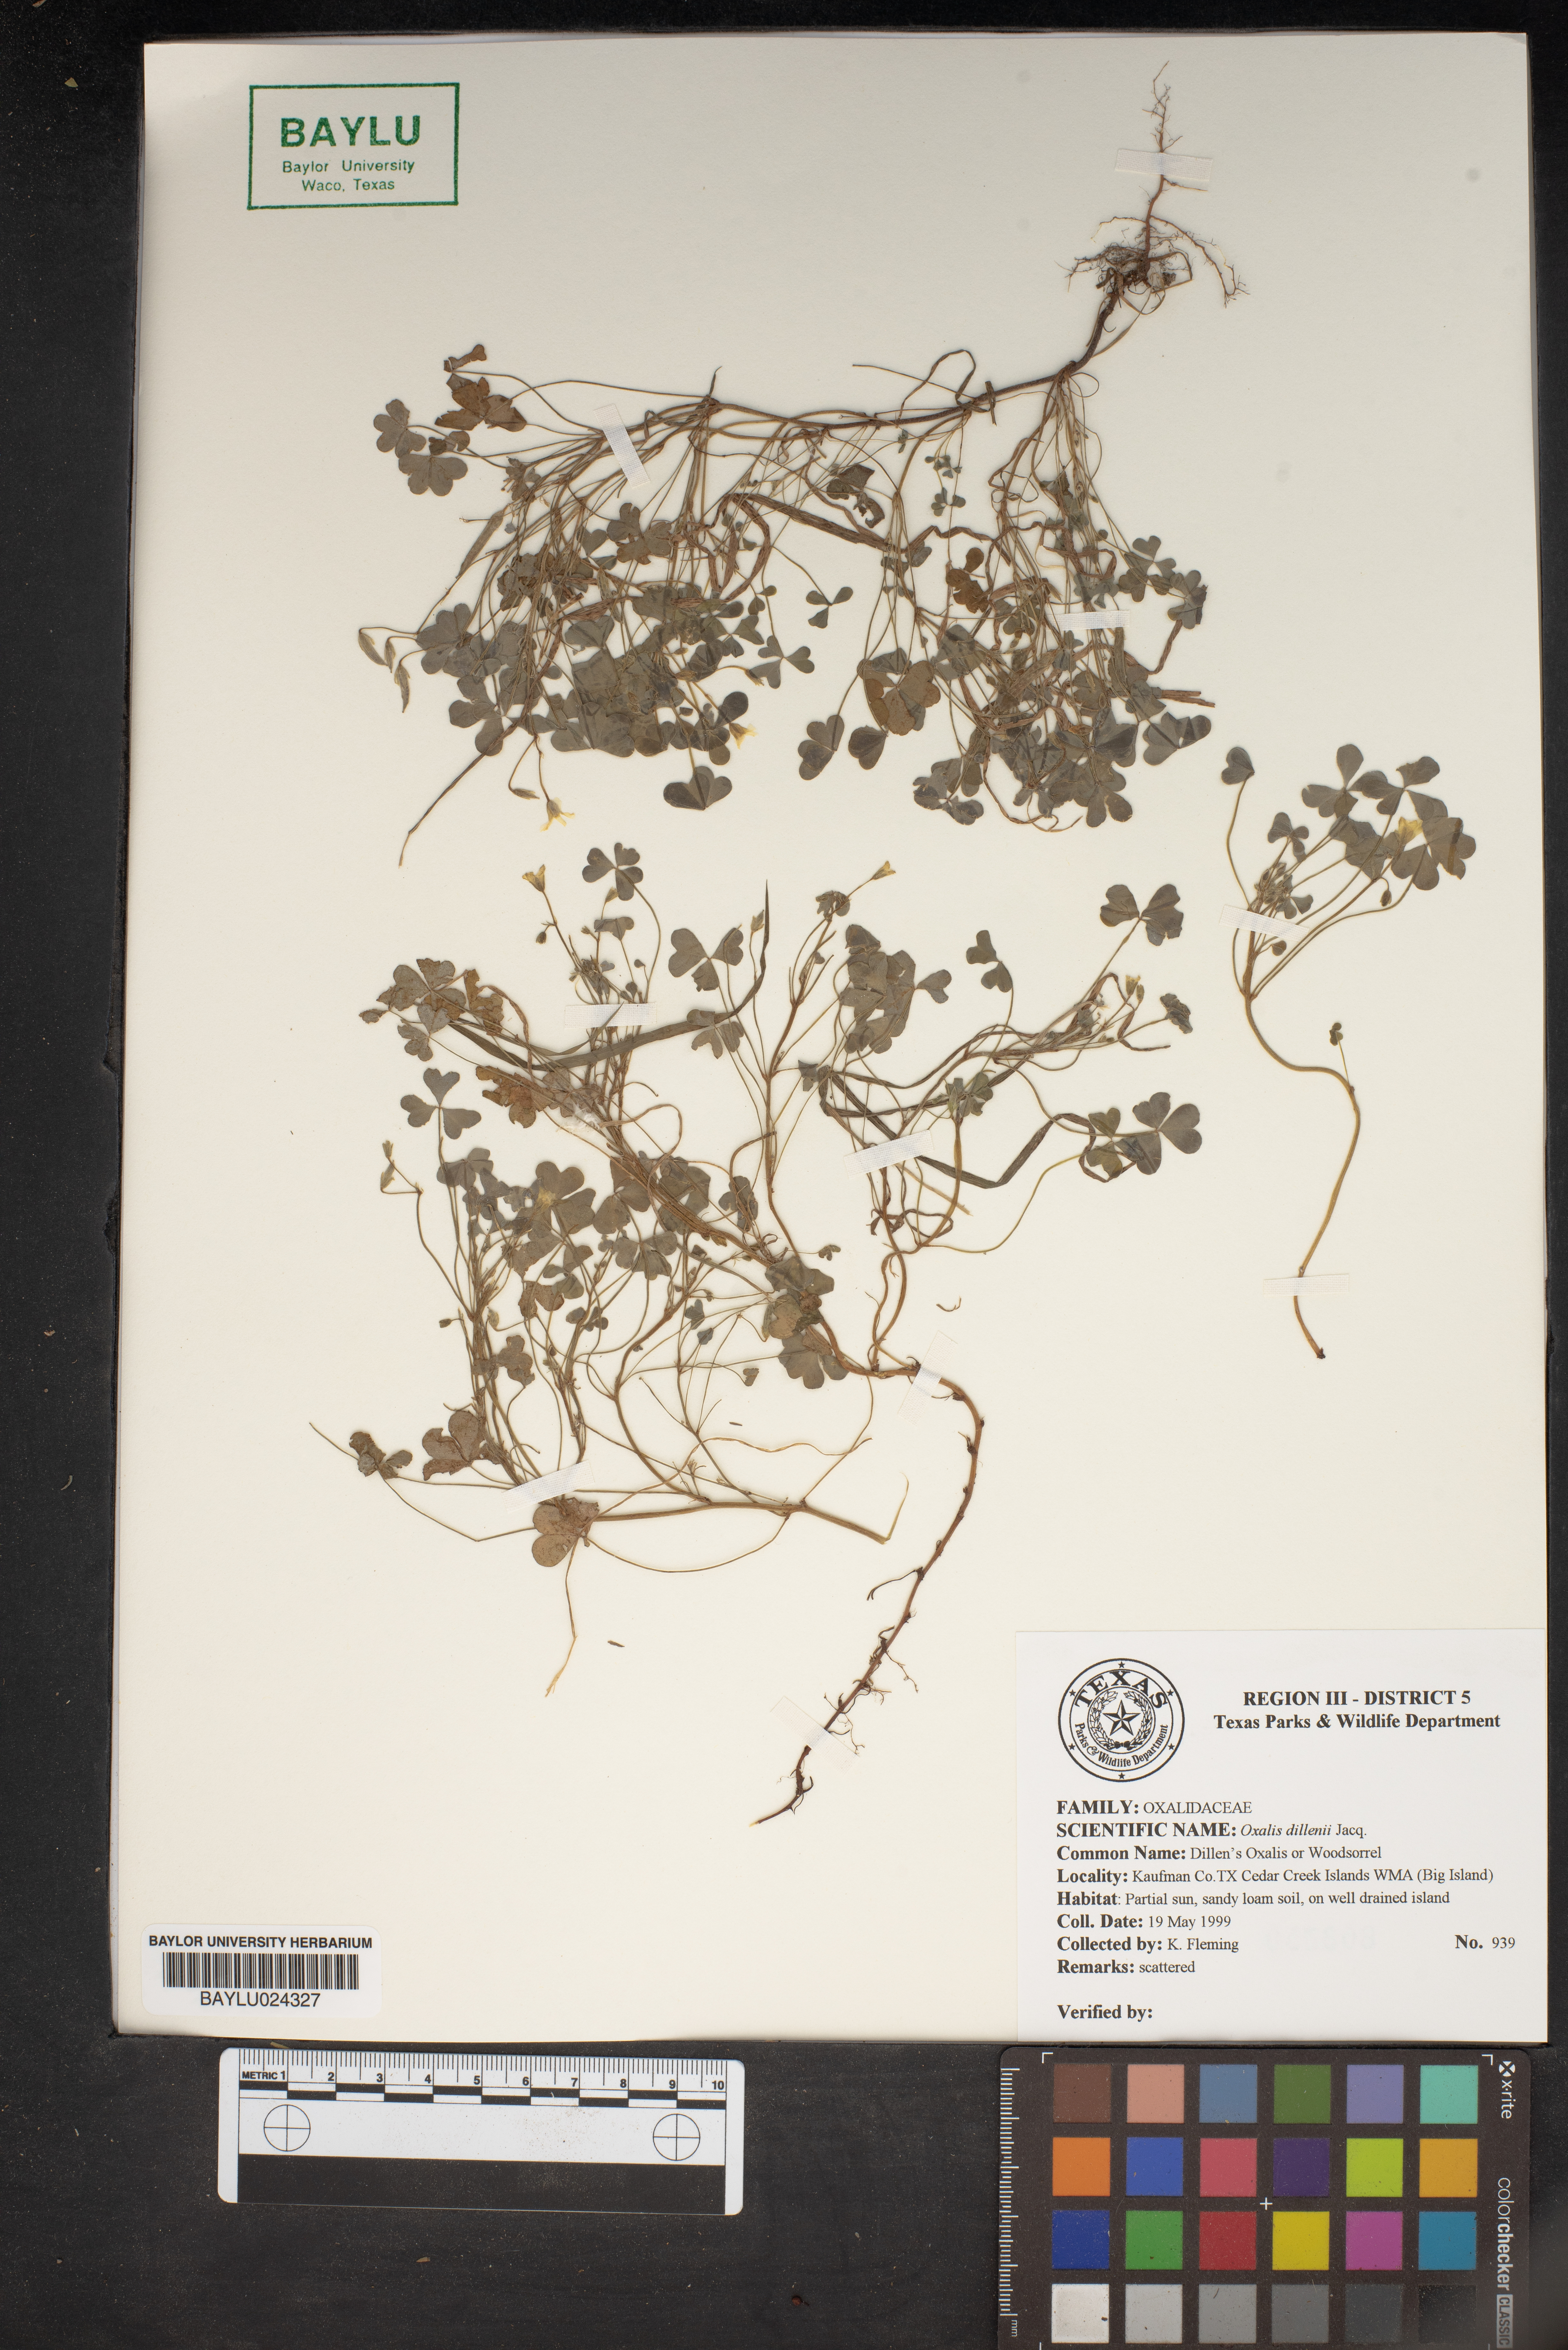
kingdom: Plantae
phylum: Tracheophyta
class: Magnoliopsida
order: Oxalidales
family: Oxalidaceae
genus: Oxalis
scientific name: Oxalis dillenii
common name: Sussex yellow-sorrel
